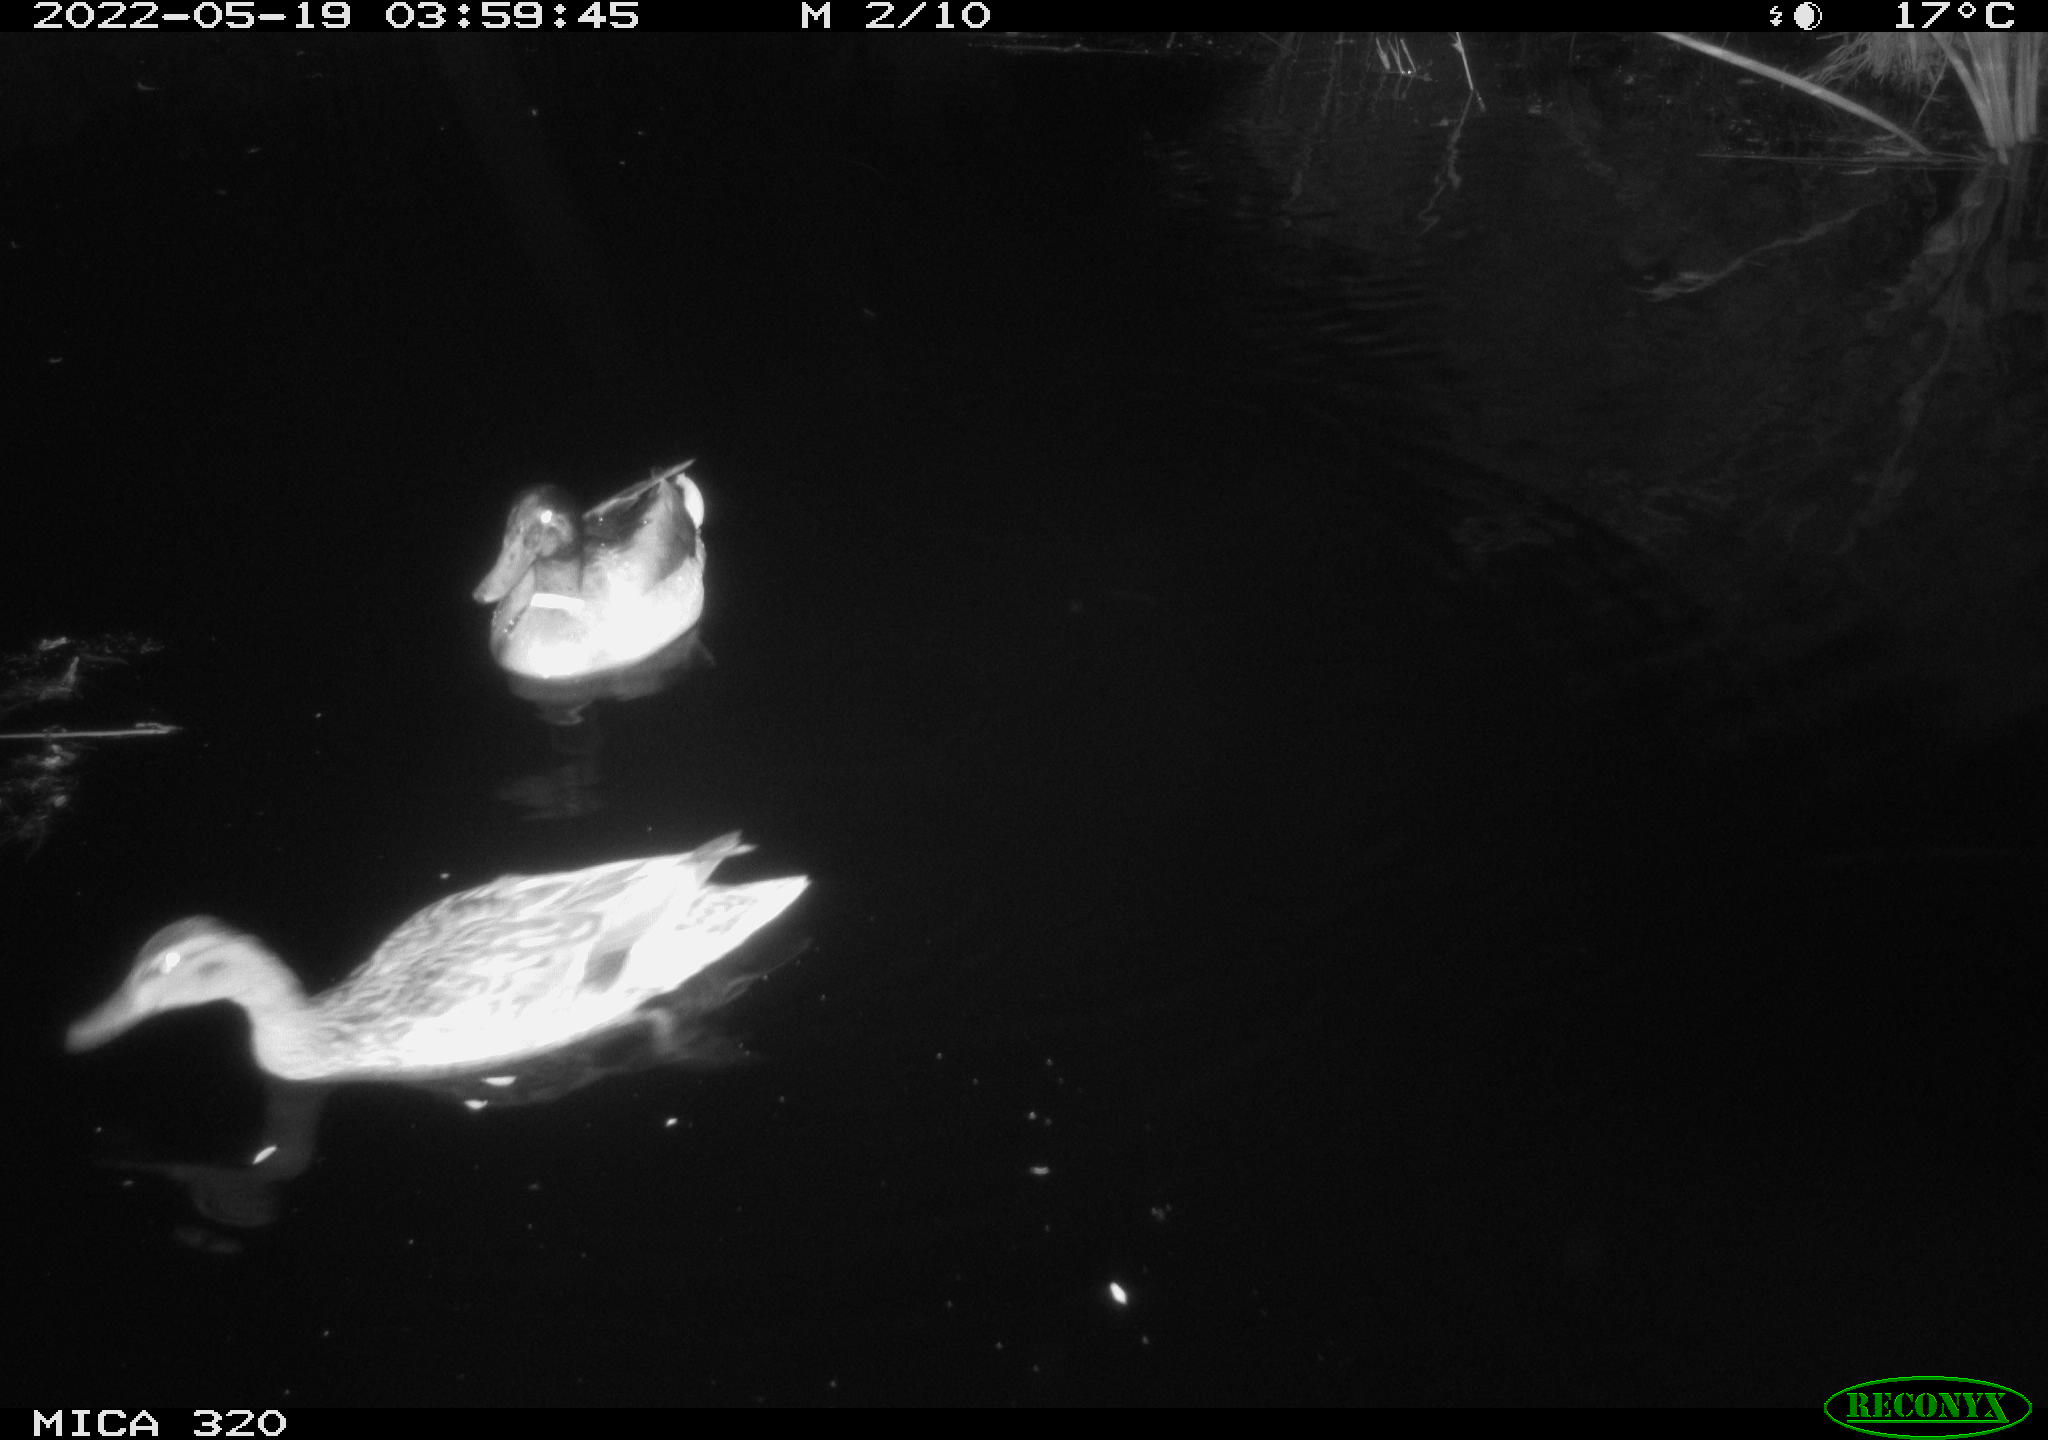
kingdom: Animalia
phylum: Chordata
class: Aves
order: Anseriformes
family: Anatidae
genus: Mareca
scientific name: Mareca strepera
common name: Gadwall
